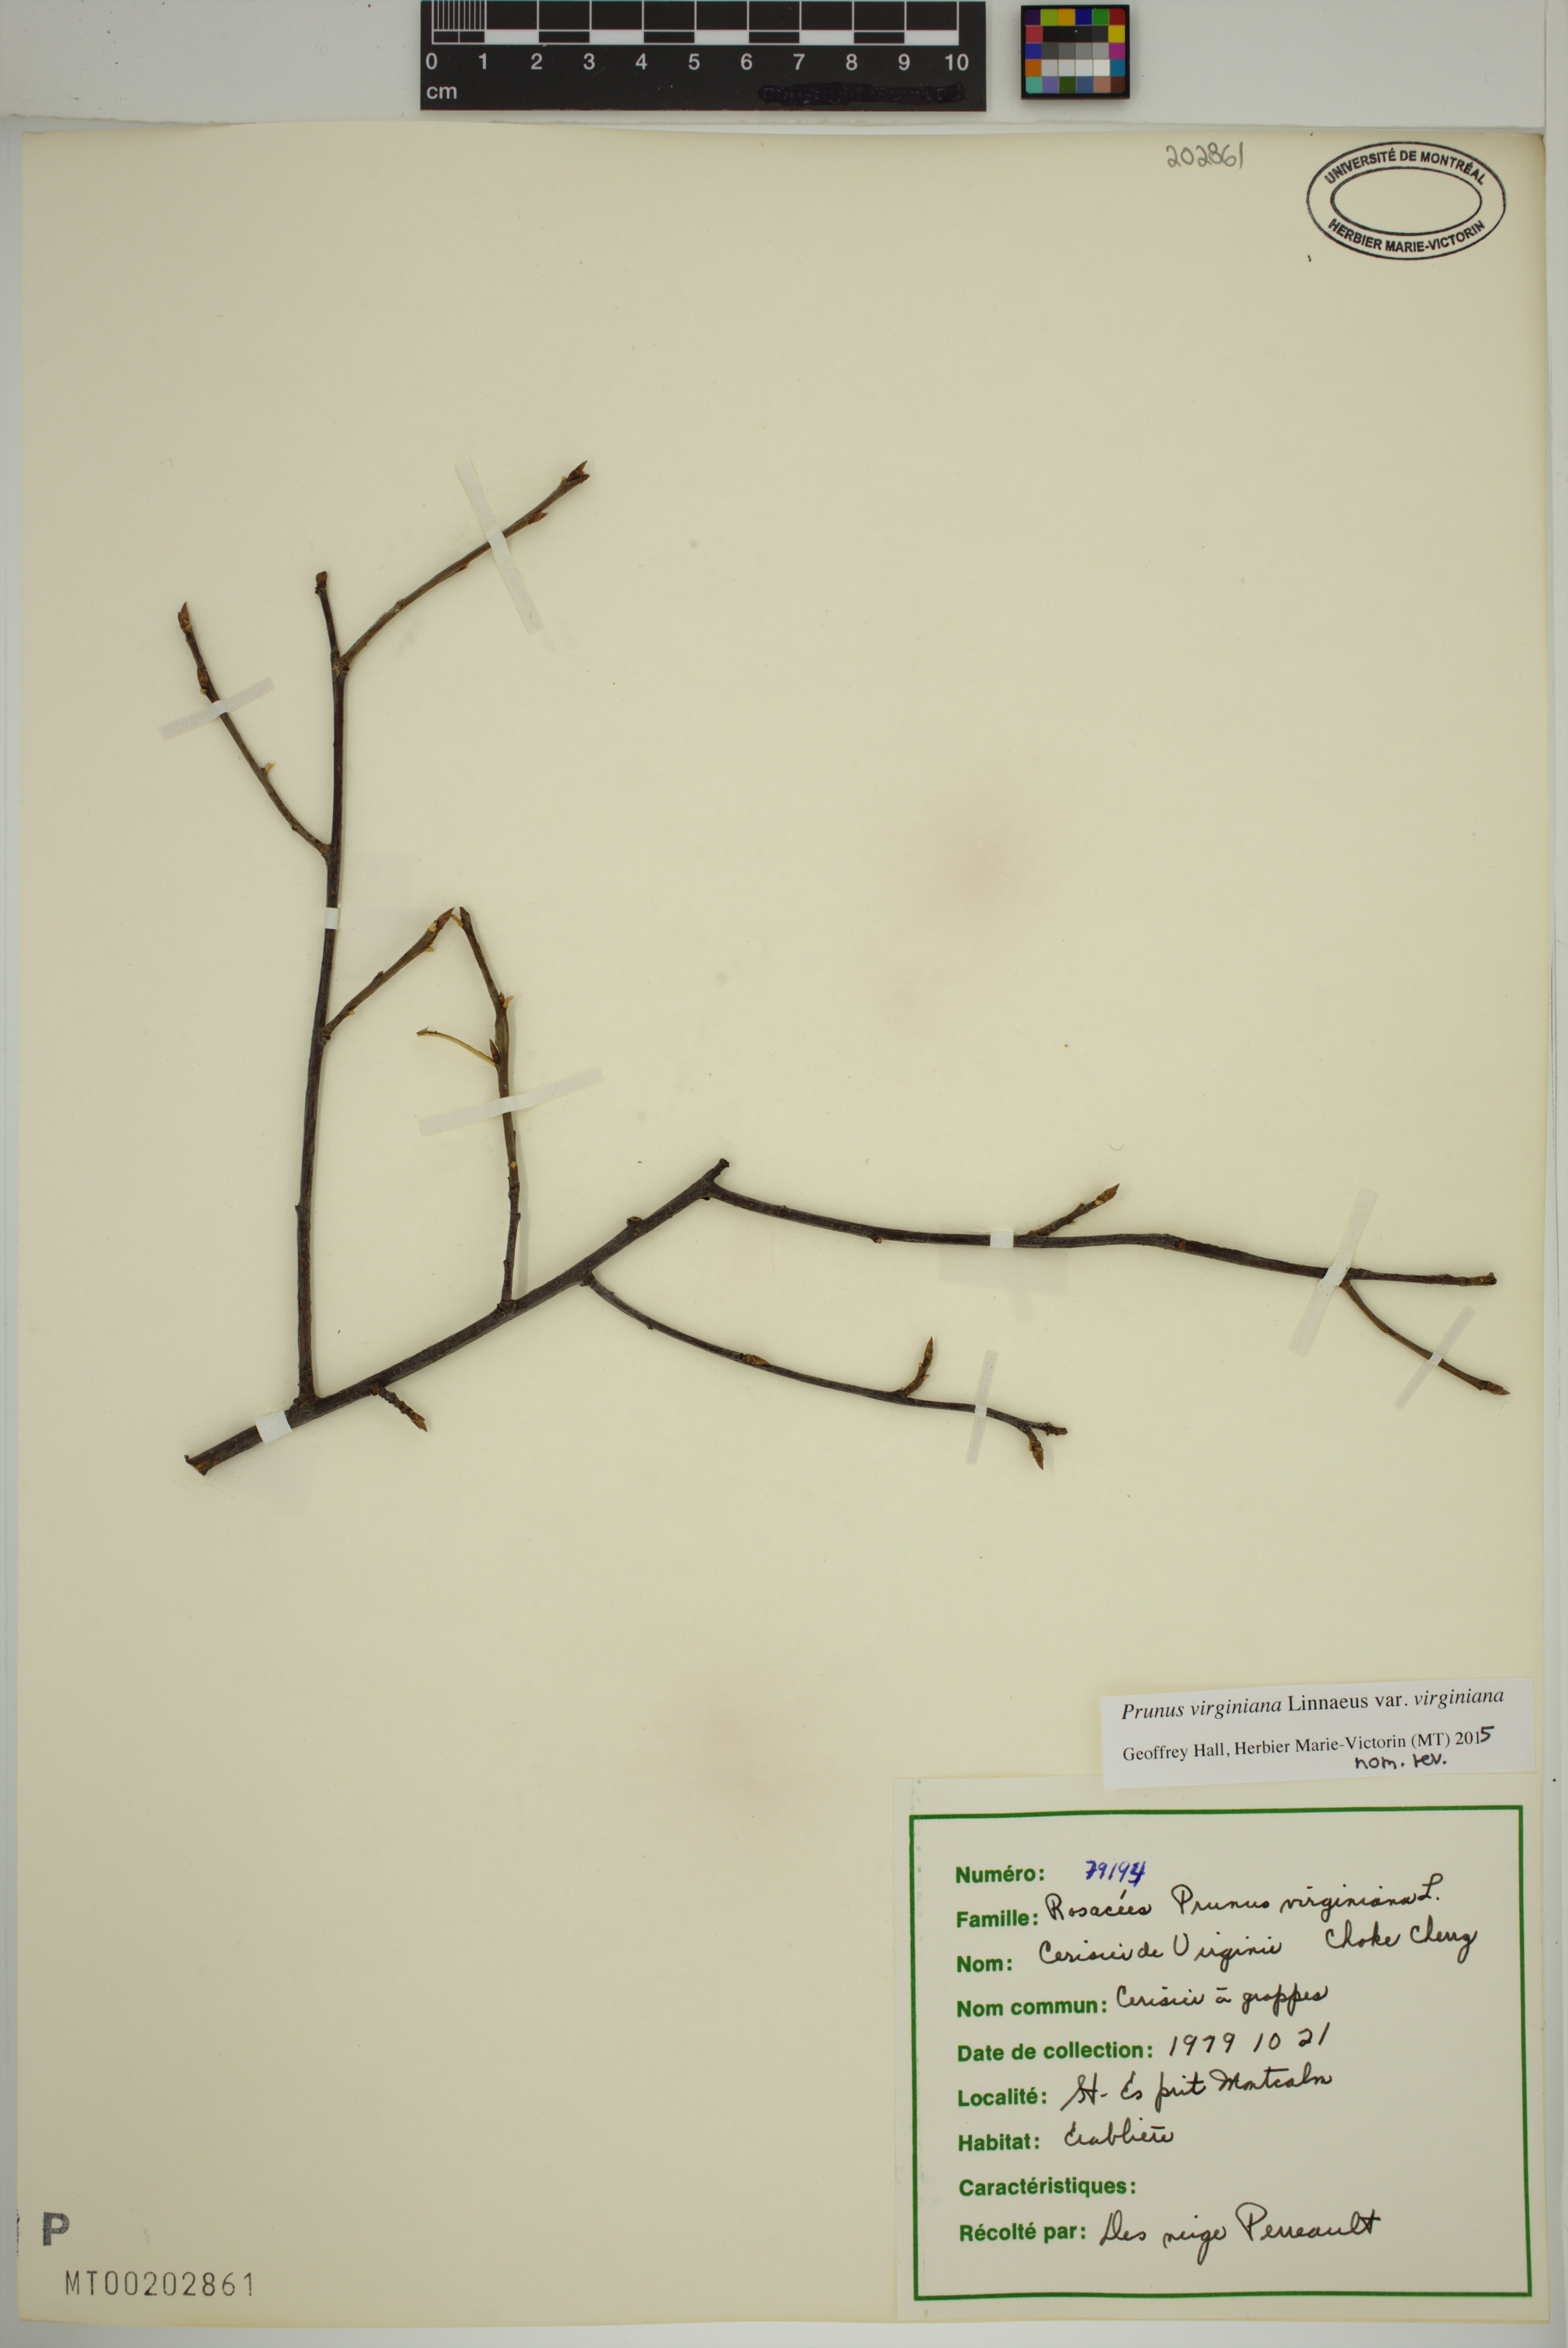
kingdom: Plantae
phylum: Tracheophyta
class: Magnoliopsida
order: Rosales
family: Rosaceae
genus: Prunus
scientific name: Prunus virginiana
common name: Chokecherry
